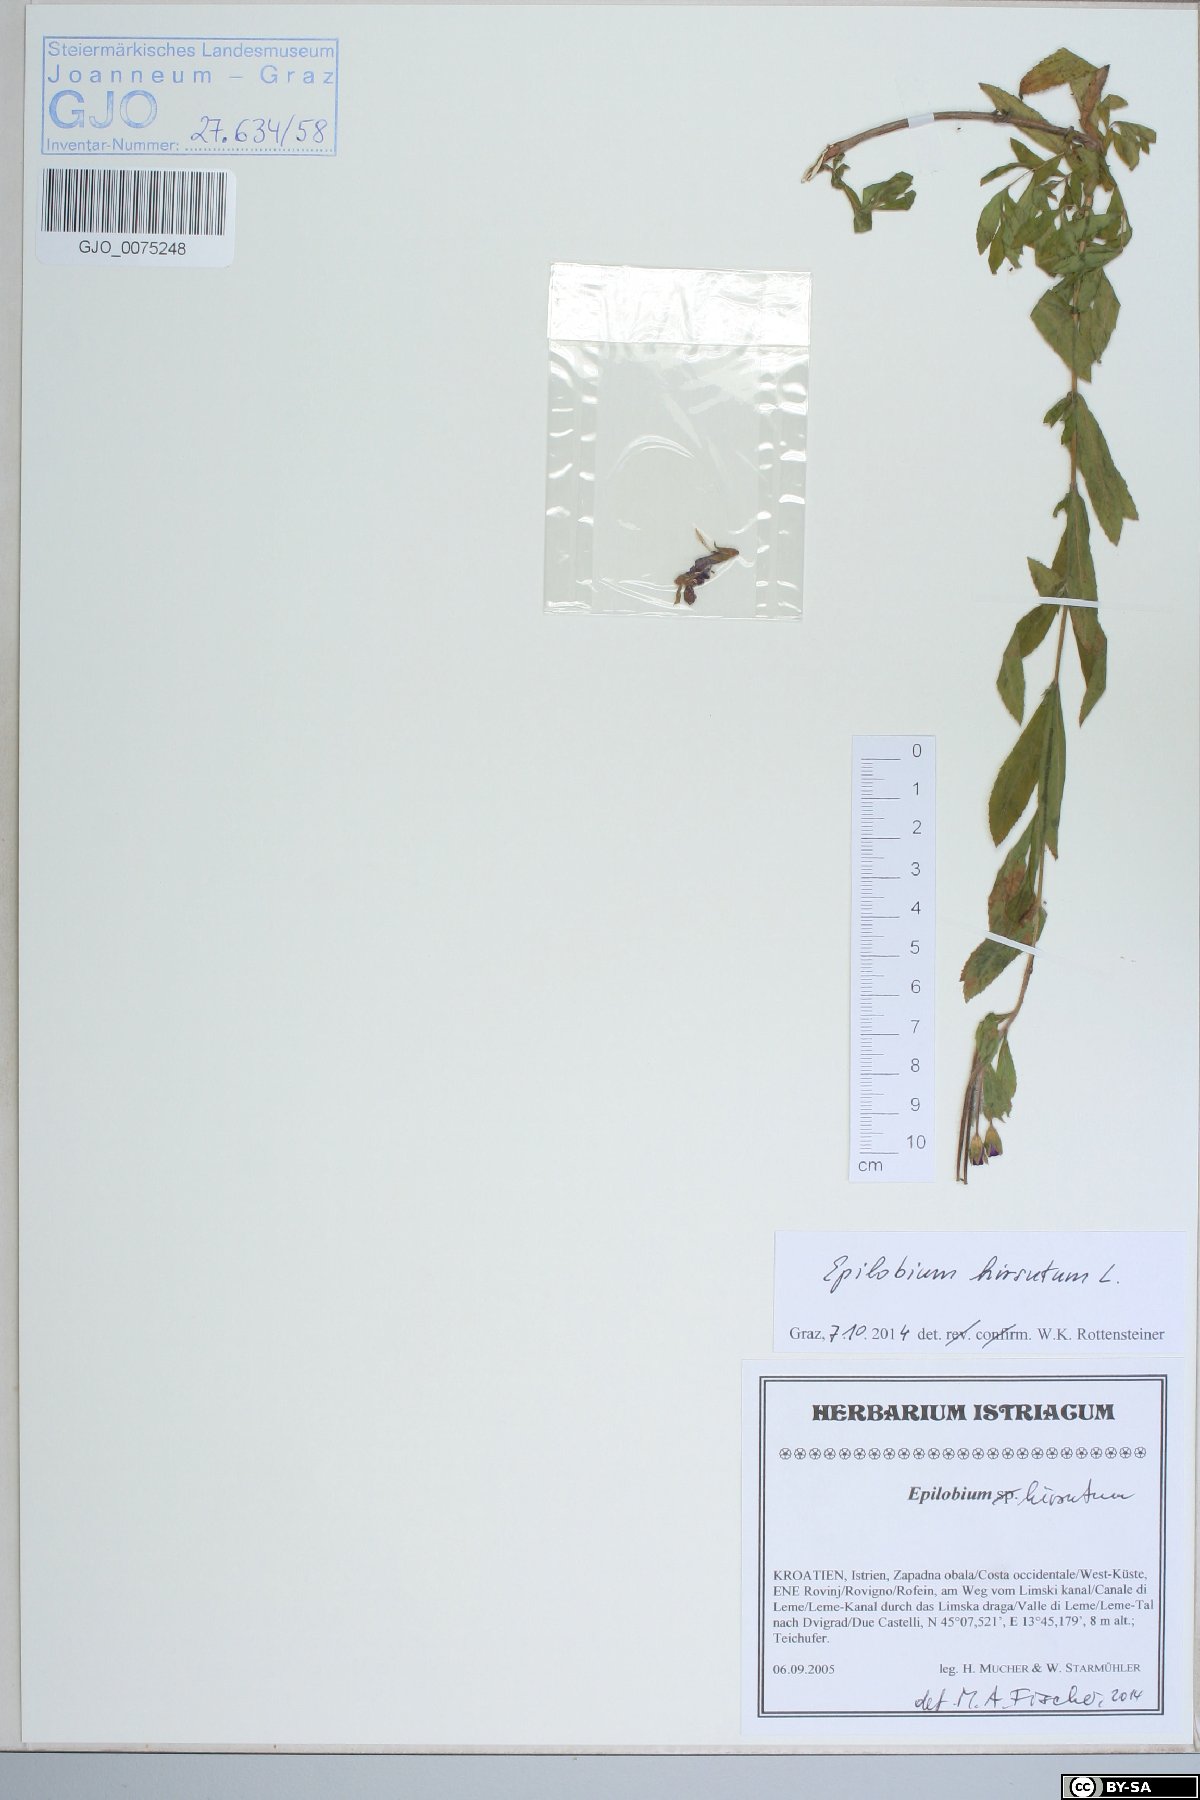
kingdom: Plantae
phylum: Tracheophyta
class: Magnoliopsida
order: Myrtales
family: Onagraceae
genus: Epilobium
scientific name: Epilobium hirsutum
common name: Great willowherb
